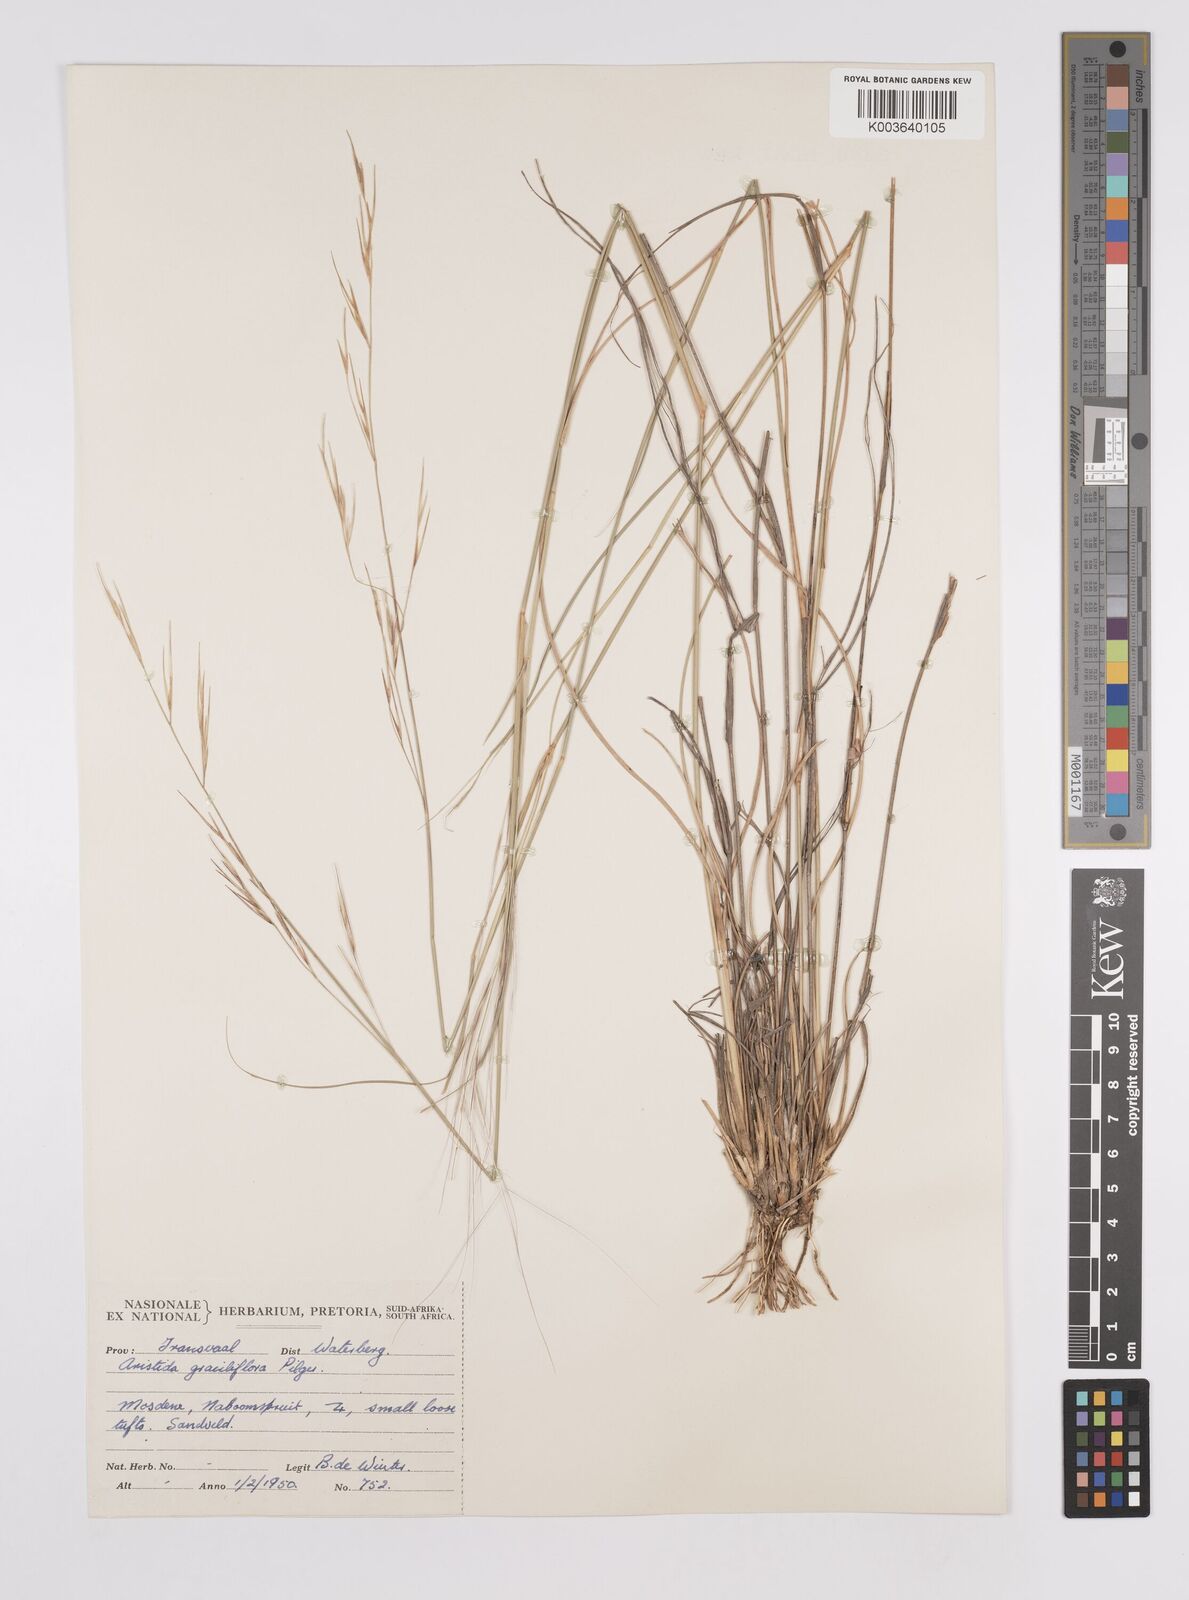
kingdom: Plantae
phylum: Tracheophyta
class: Liliopsida
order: Poales
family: Poaceae
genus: Aristida
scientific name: Aristida stipitata
